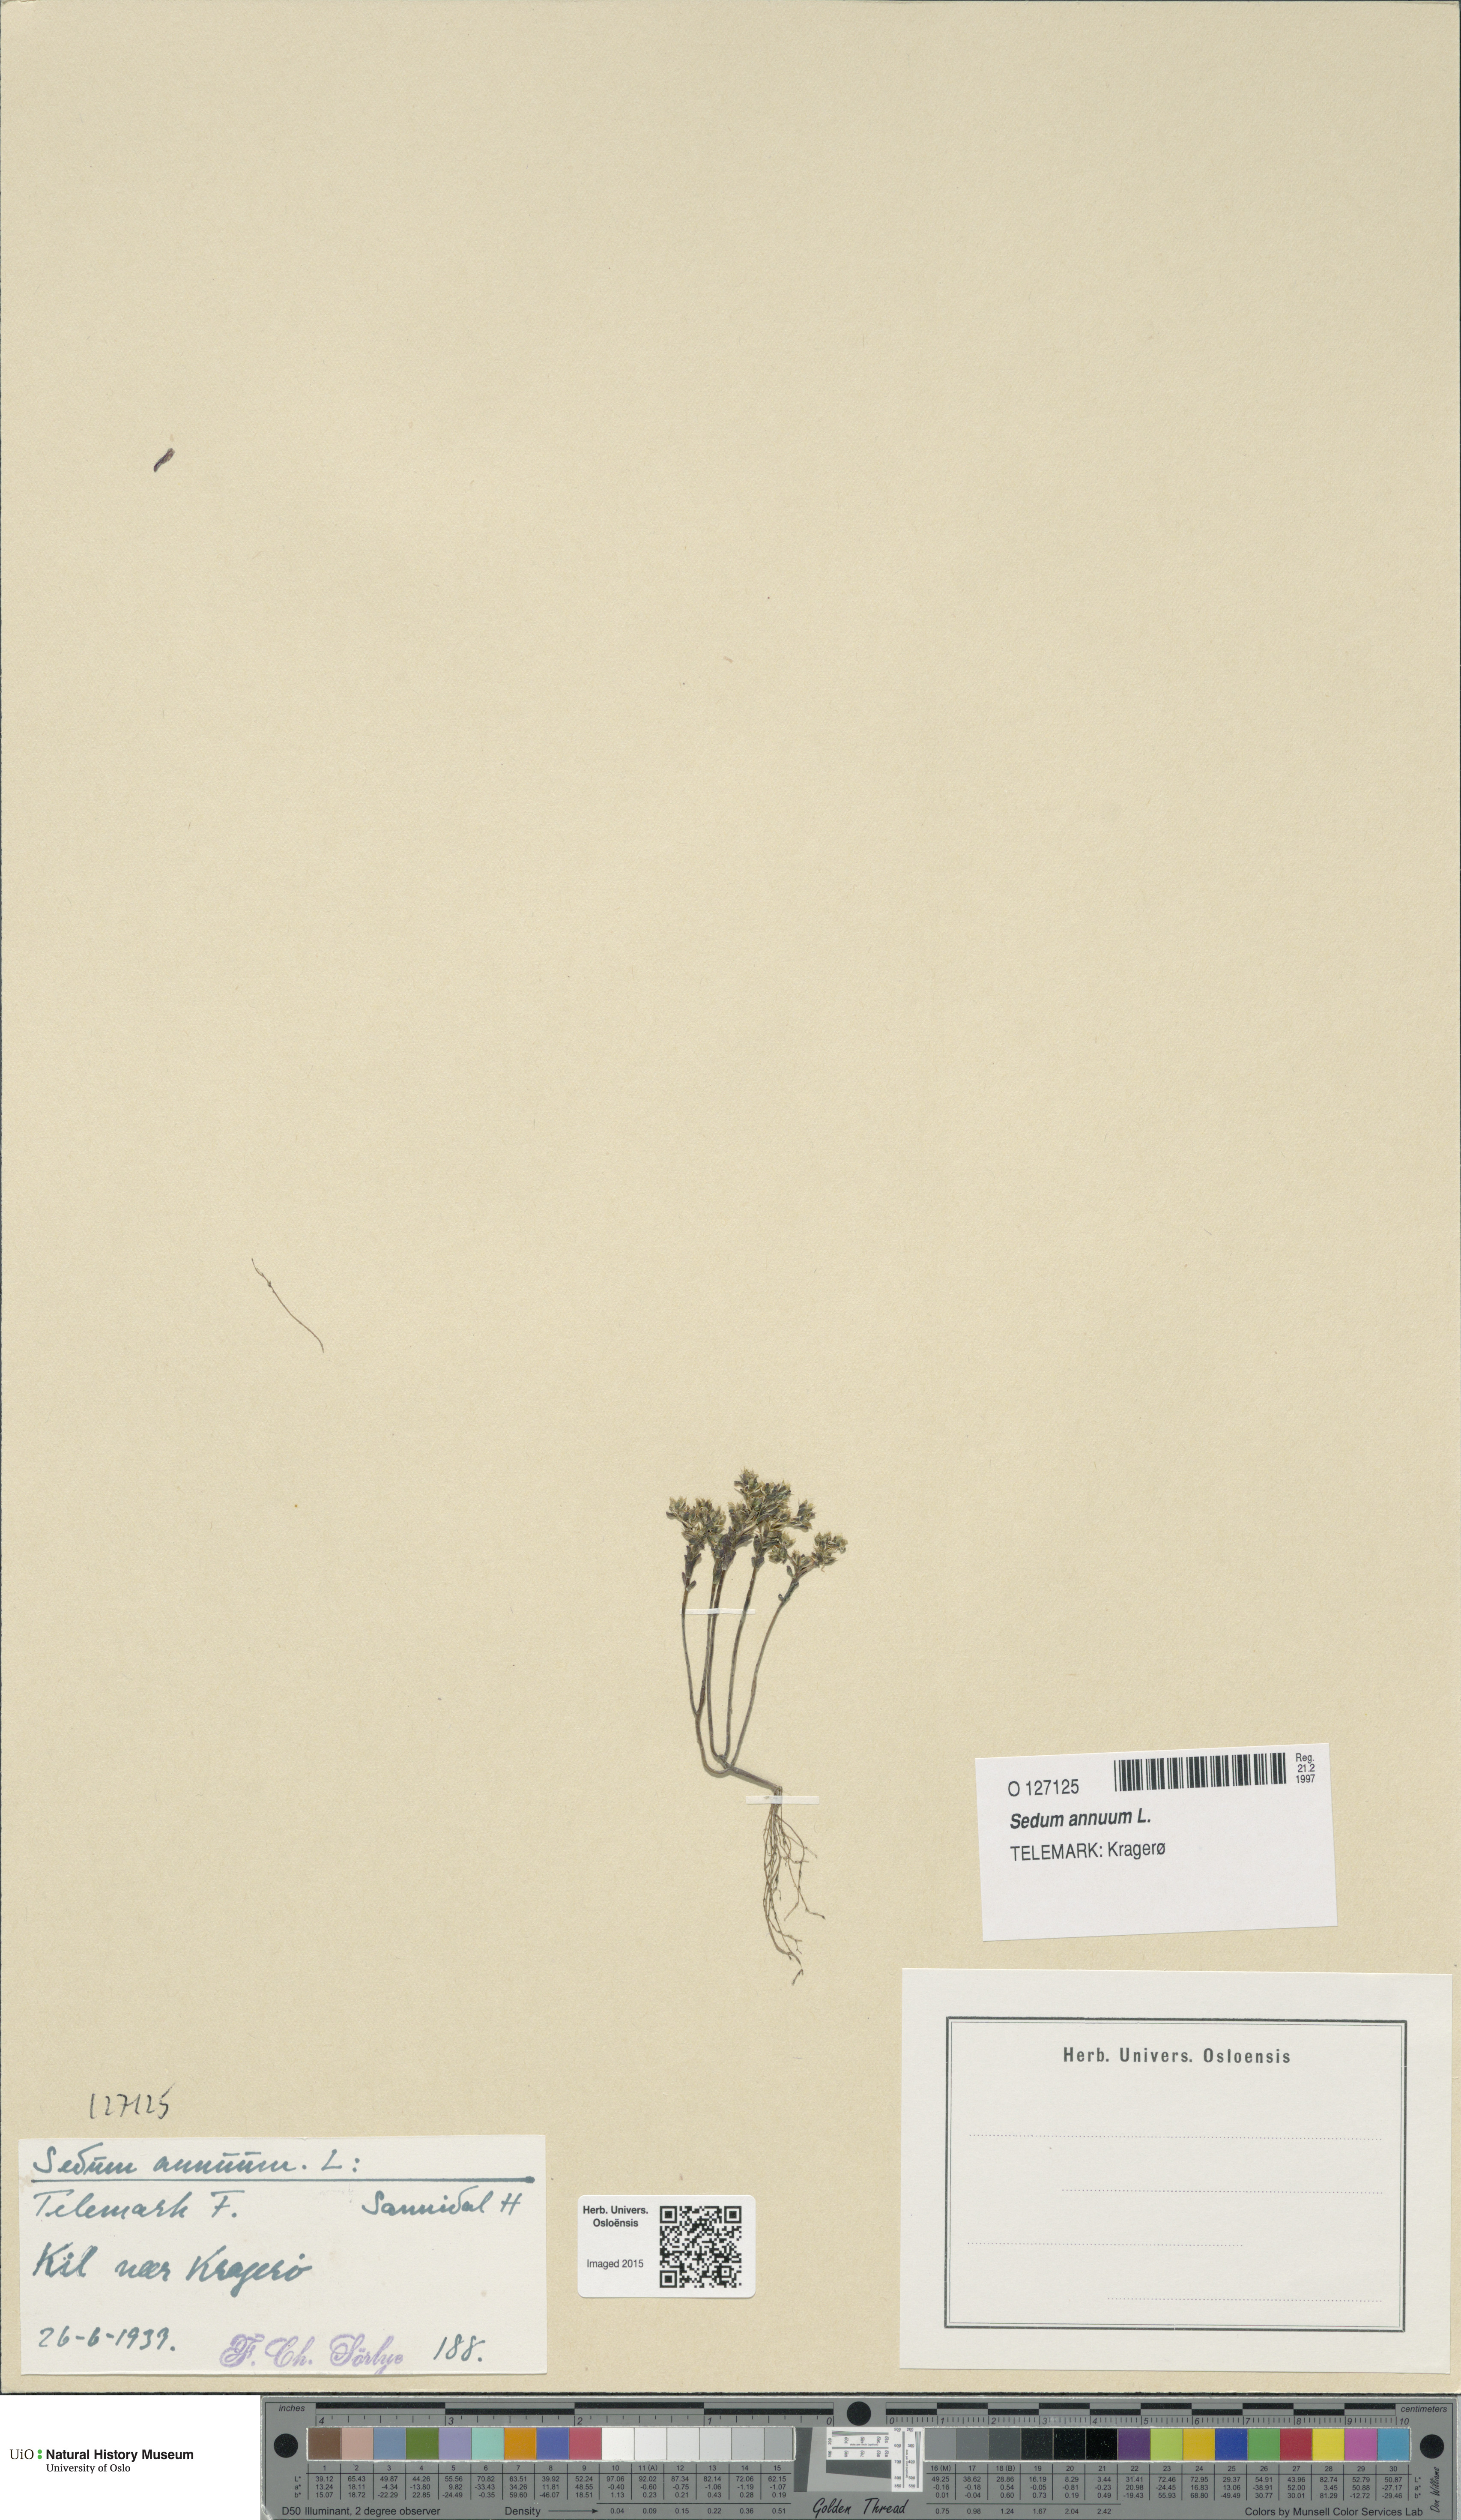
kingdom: Plantae
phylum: Tracheophyta
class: Magnoliopsida
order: Saxifragales
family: Crassulaceae
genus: Sedum
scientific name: Sedum annuum
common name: Annual stonecrop
